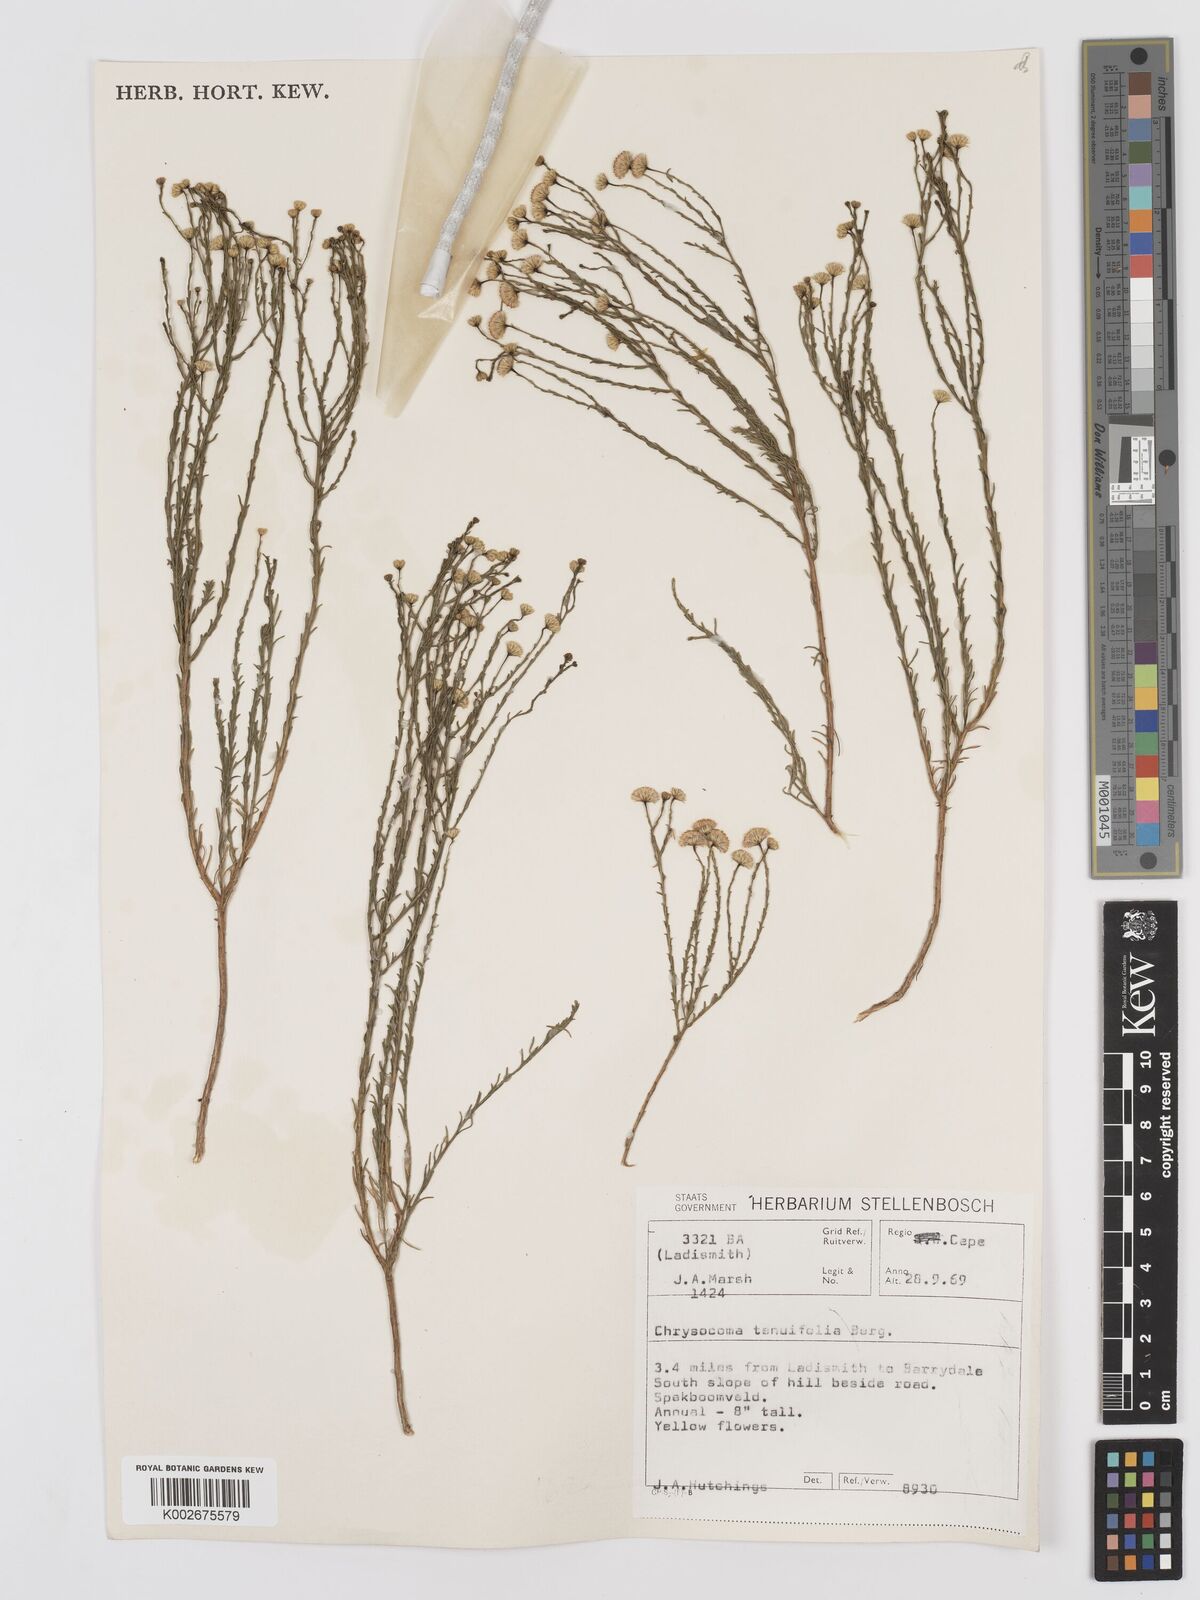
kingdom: Plantae
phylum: Tracheophyta
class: Magnoliopsida
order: Asterales
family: Asteraceae
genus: Chrysocoma
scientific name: Chrysocoma ciliata
